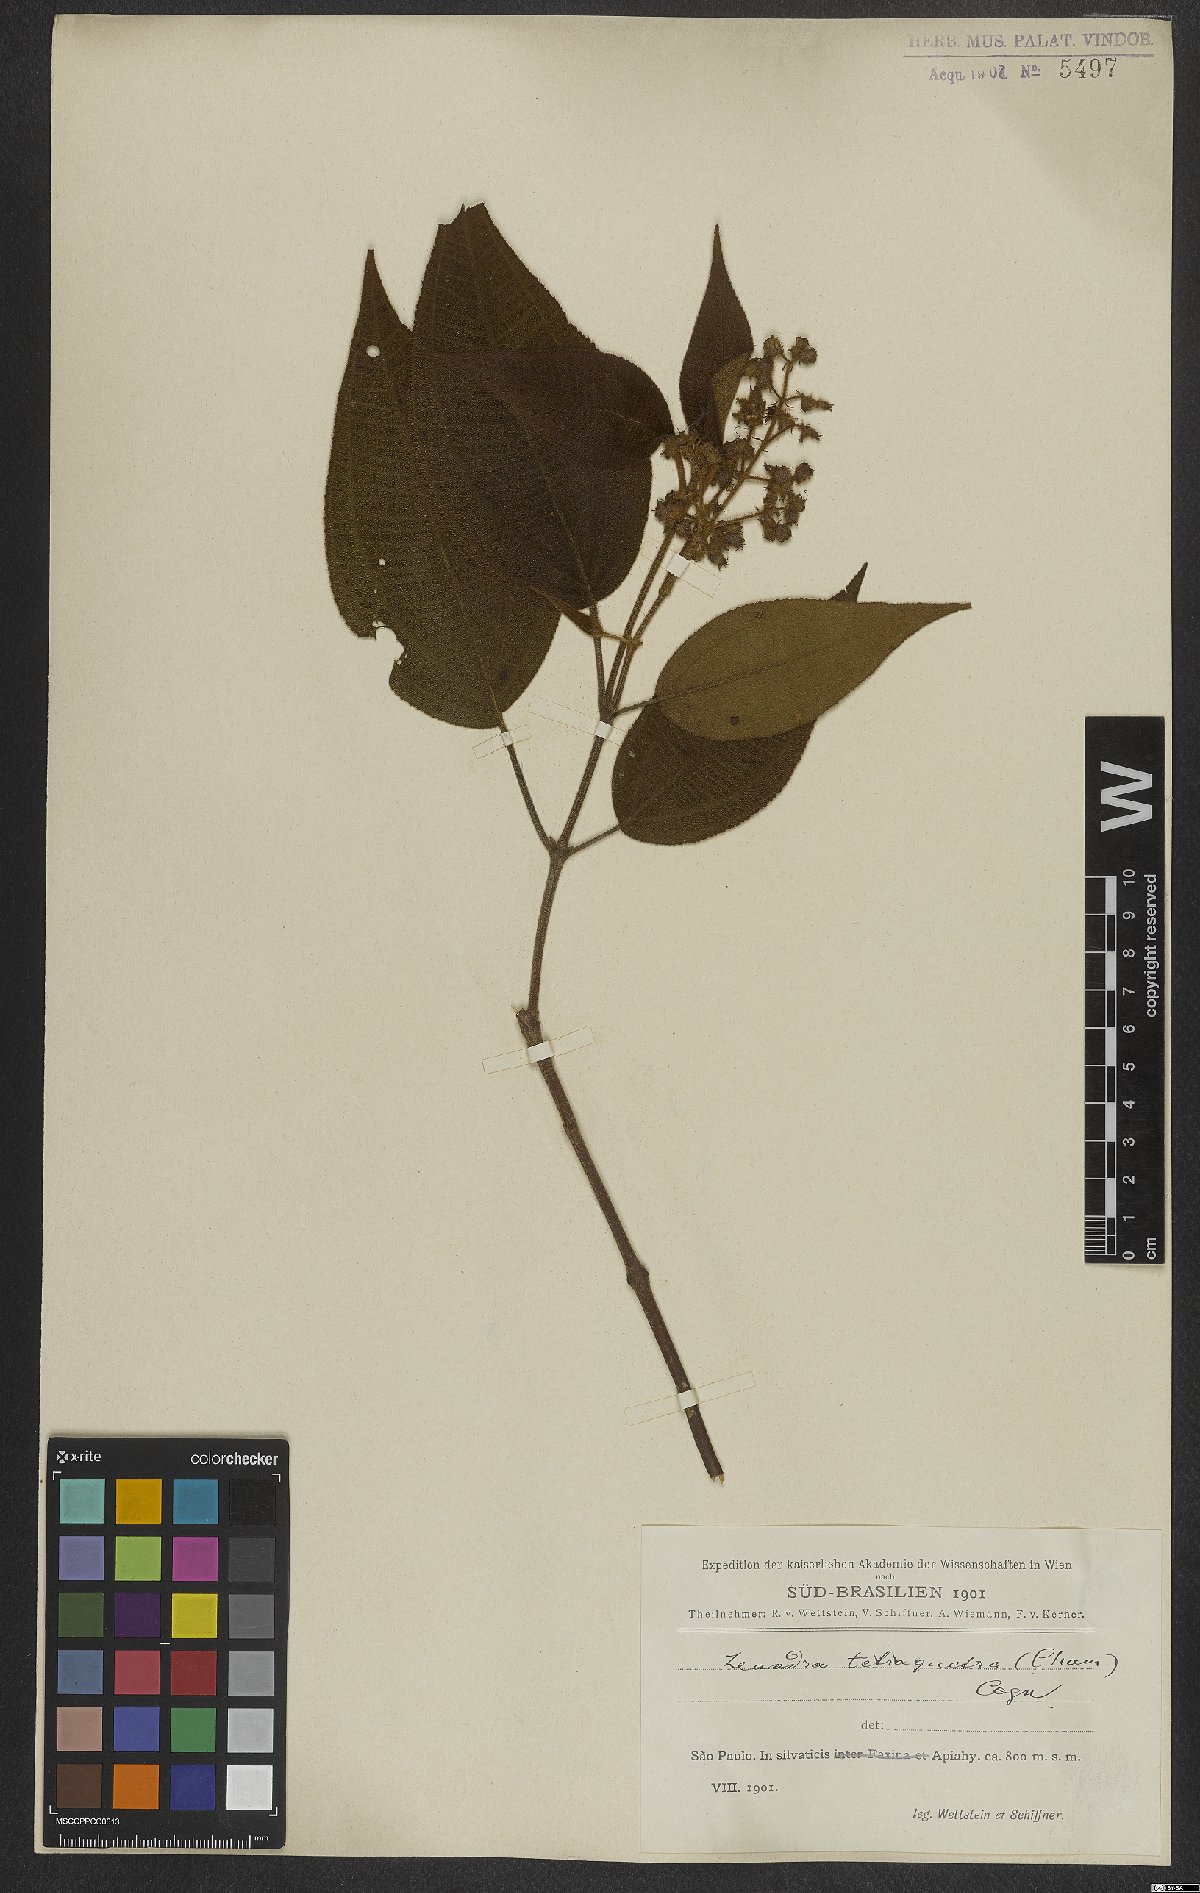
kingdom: Plantae
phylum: Tracheophyta
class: Magnoliopsida
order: Myrtales
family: Melastomataceae
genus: Miconia
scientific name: Miconia tetraquetra
